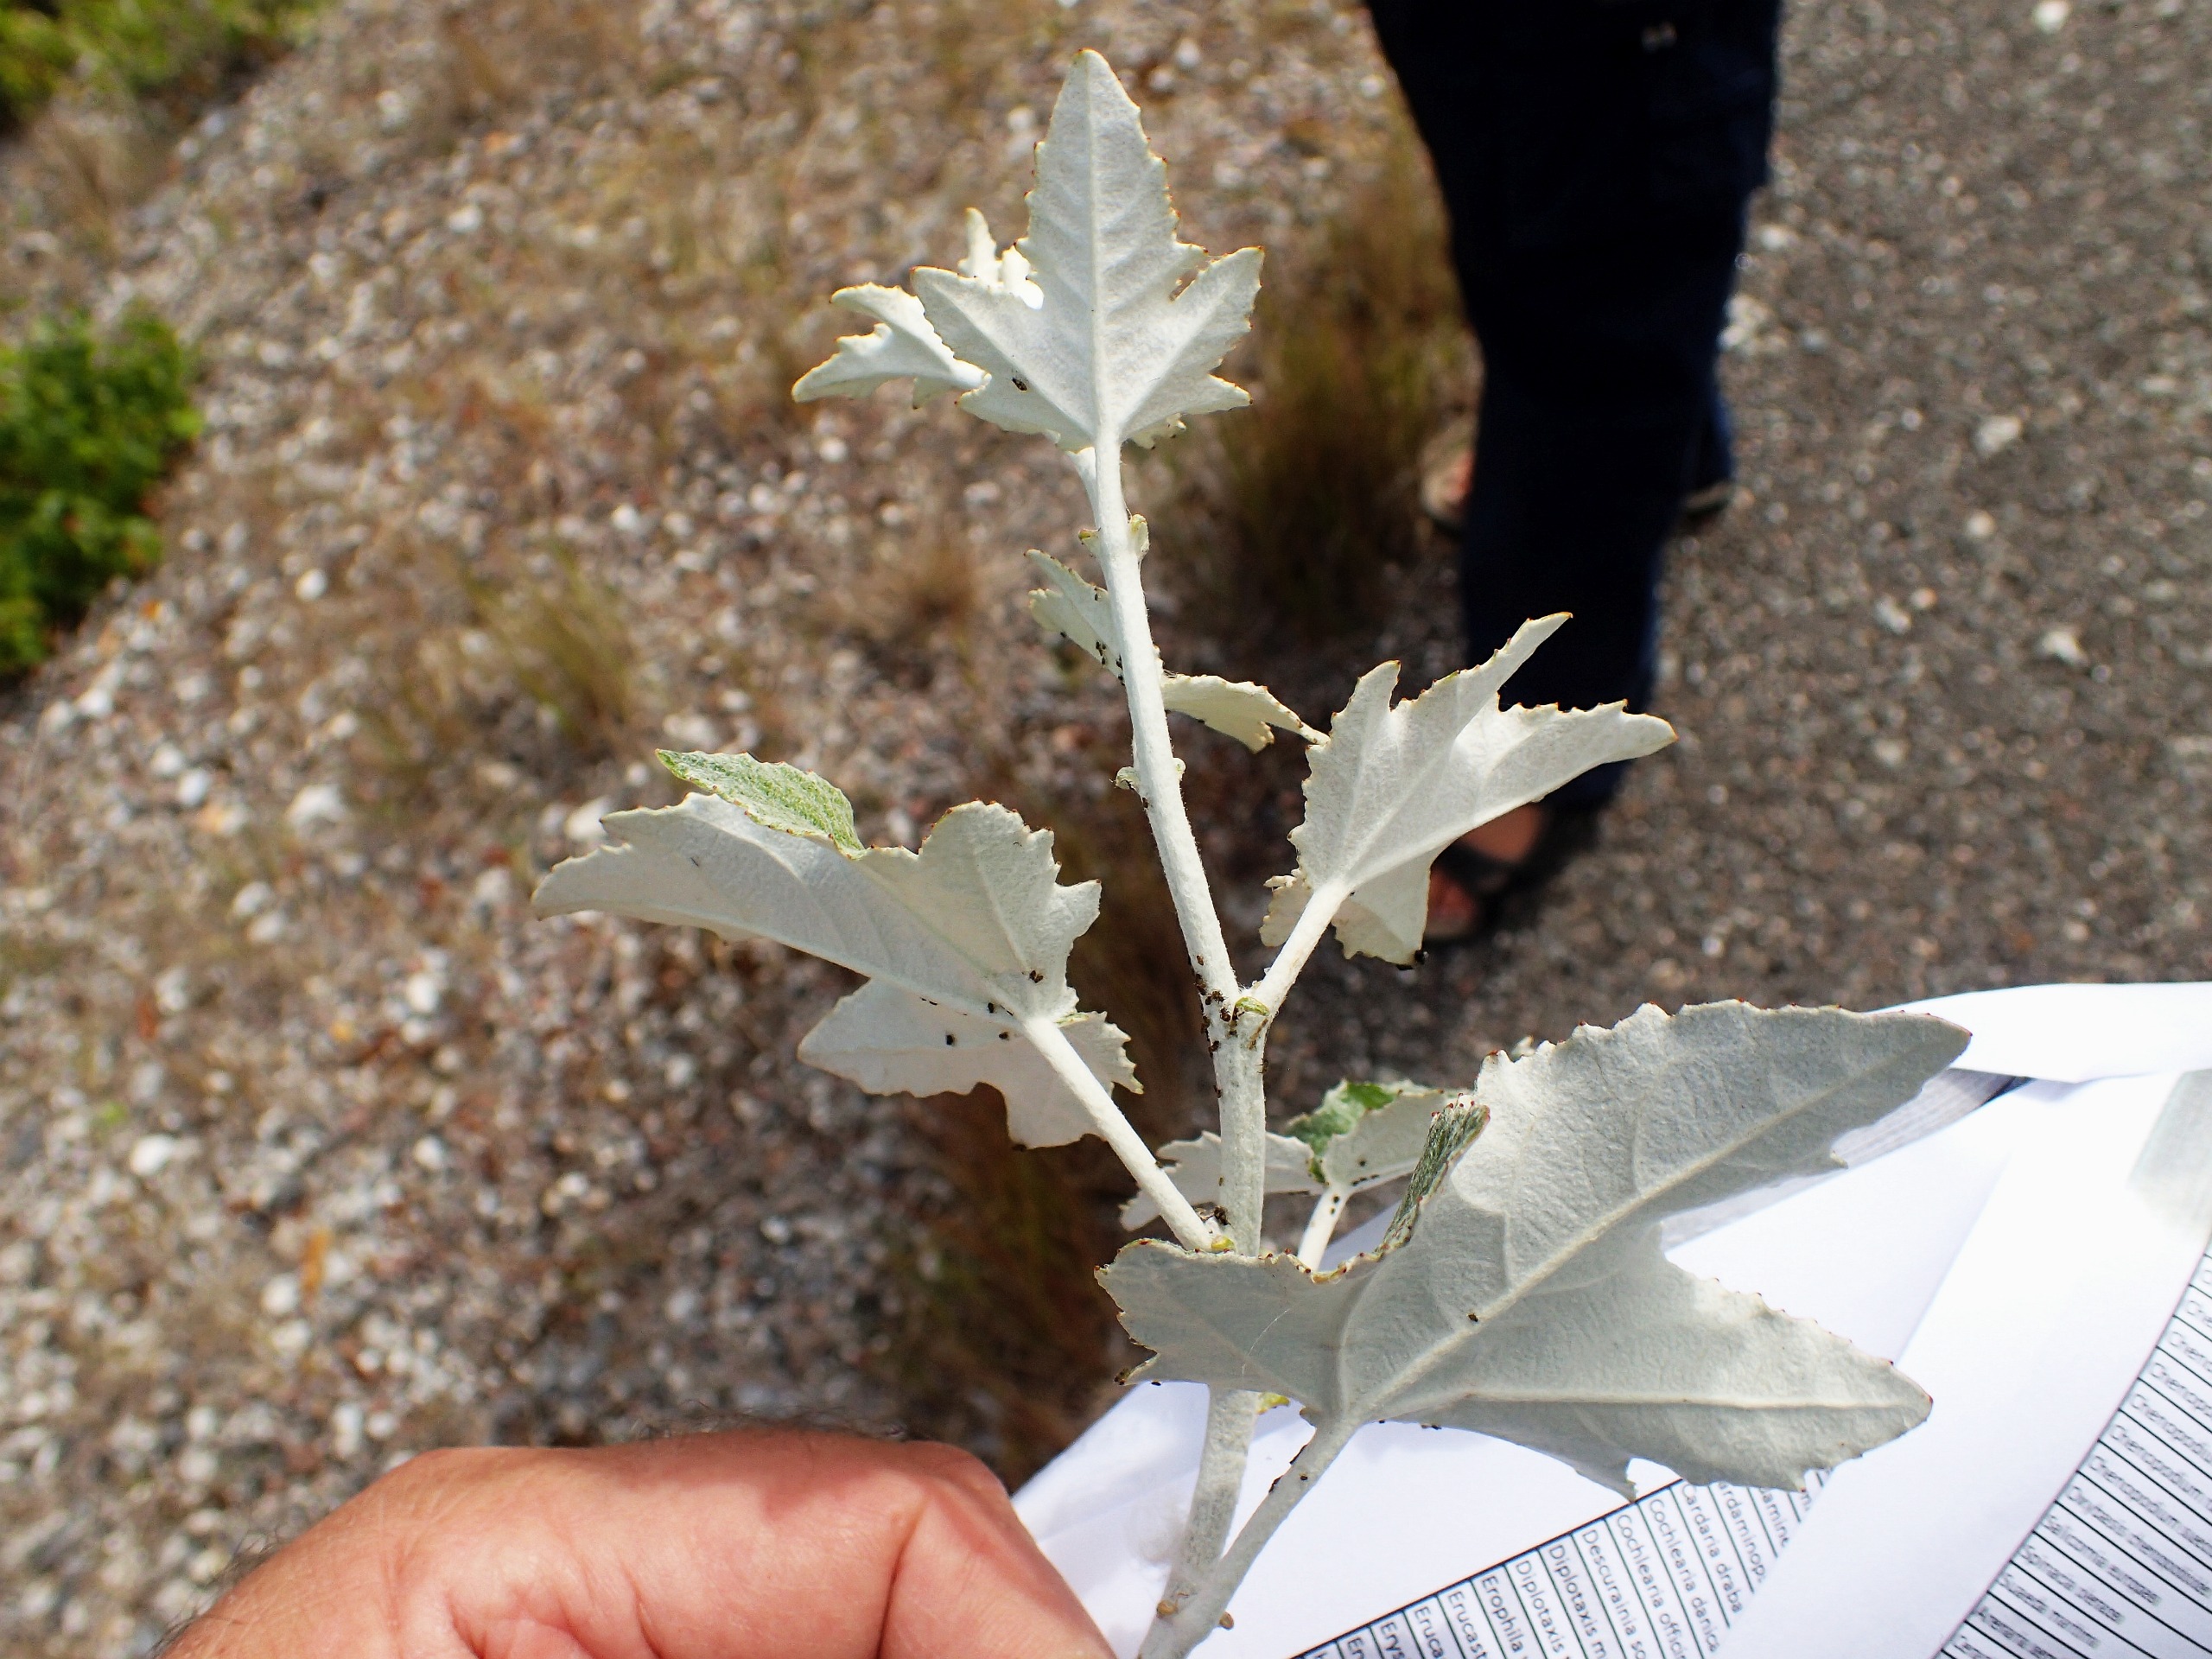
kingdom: Plantae
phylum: Tracheophyta
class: Magnoliopsida
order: Malpighiales
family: Salicaceae
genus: Populus
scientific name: Populus alba
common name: Sølv-poppel
